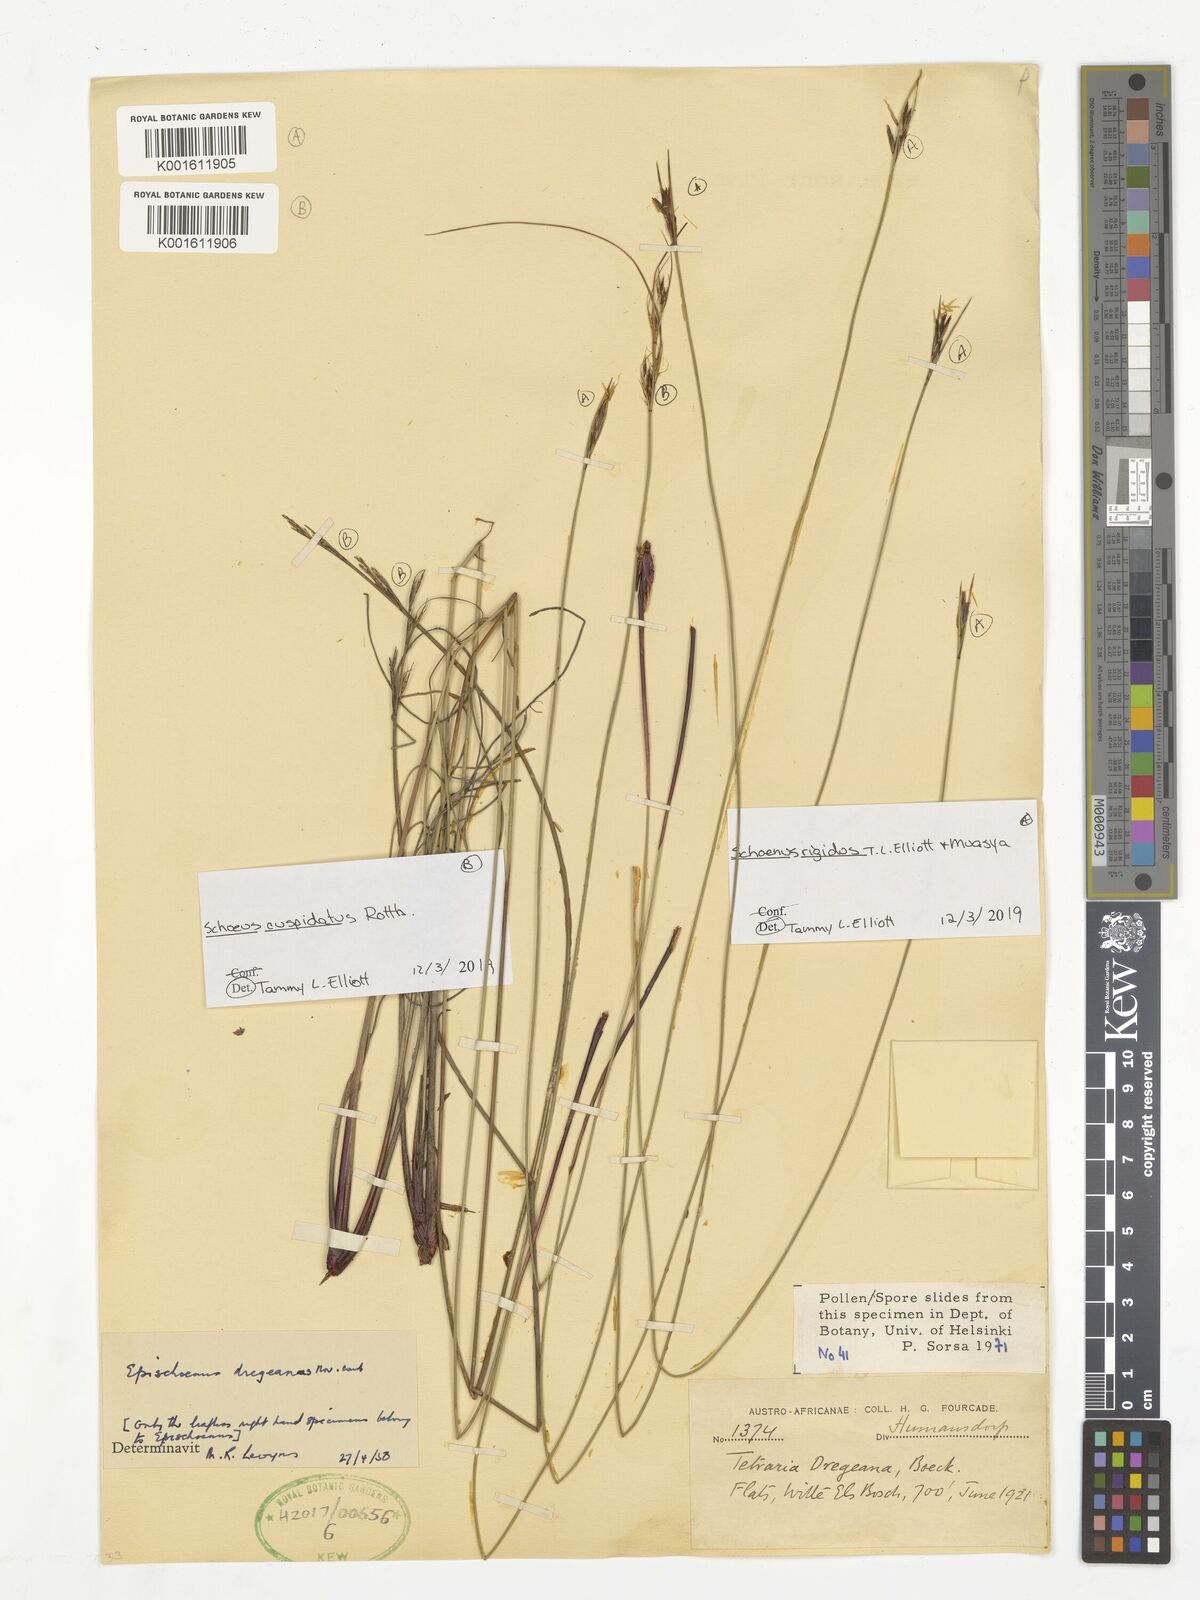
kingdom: Plantae
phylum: Tracheophyta
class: Liliopsida
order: Poales
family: Cyperaceae
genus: Schoenus
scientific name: Schoenus
